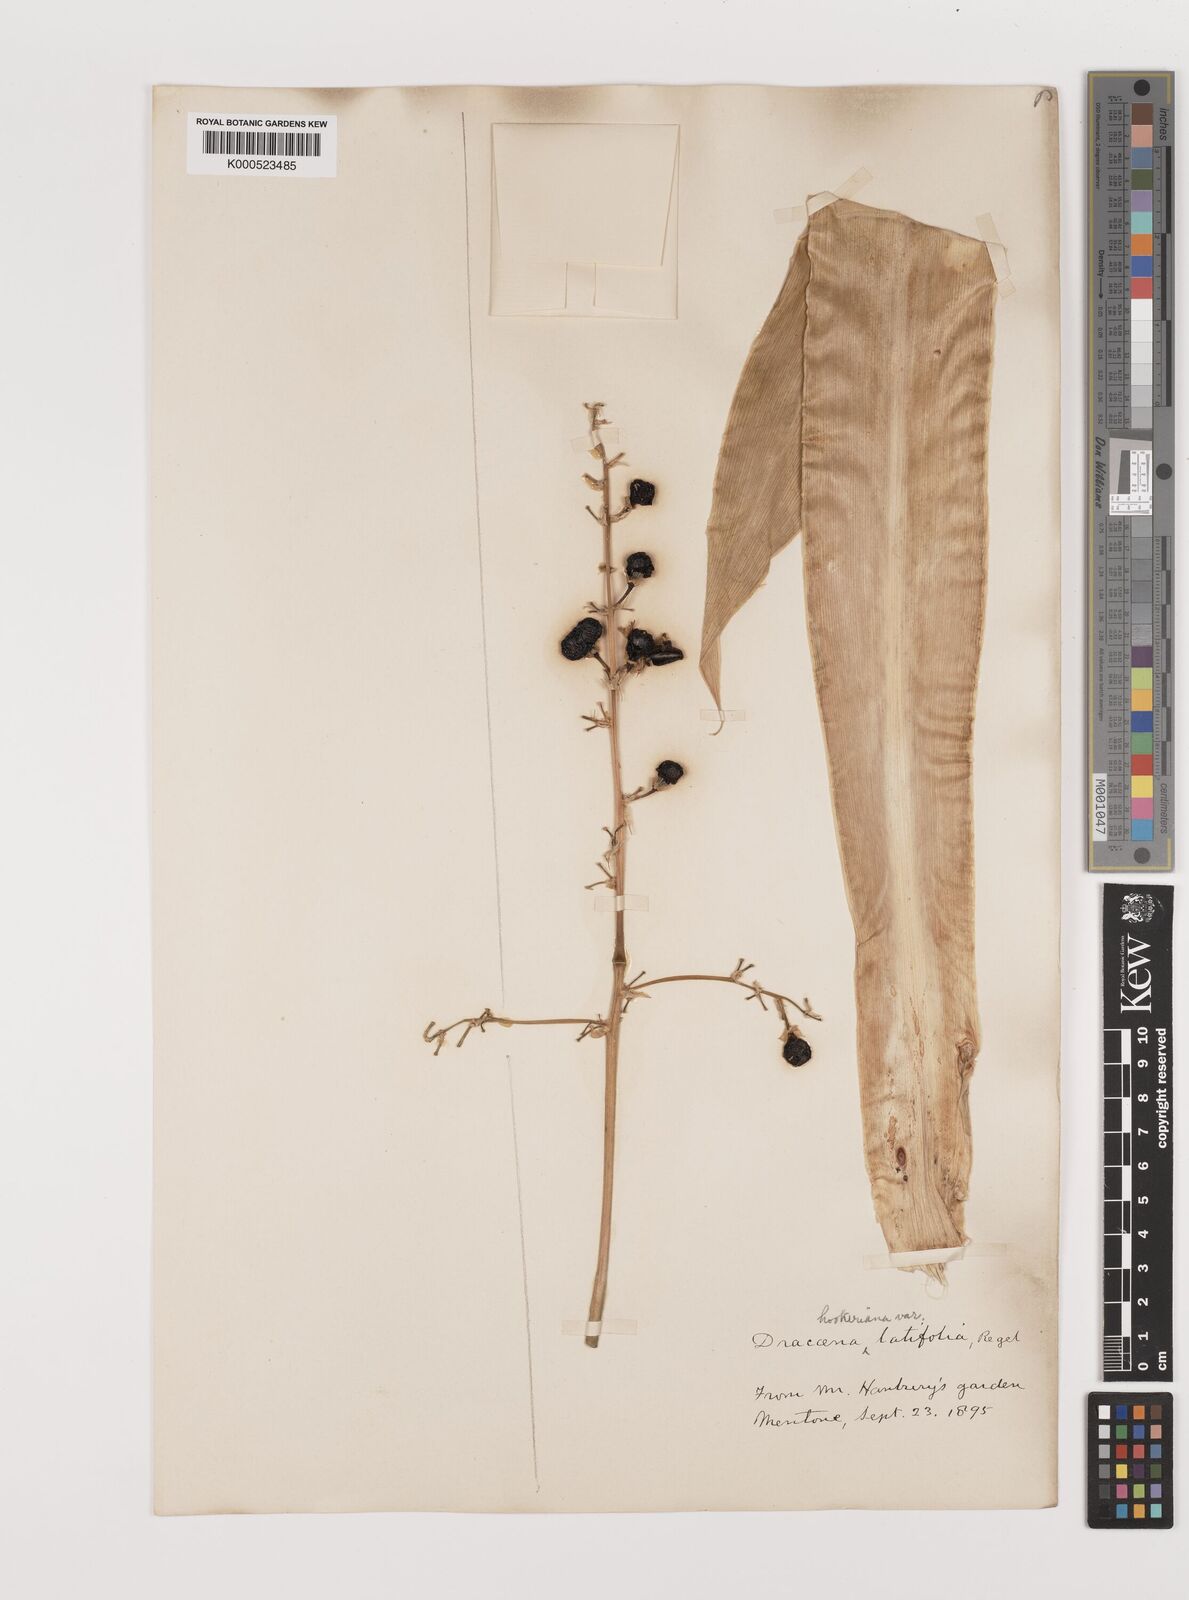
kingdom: Plantae
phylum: Tracheophyta
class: Liliopsida
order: Asparagales
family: Asparagaceae
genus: Dracaena
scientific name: Dracaena aletriformis
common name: Large-leaved dragon tree
